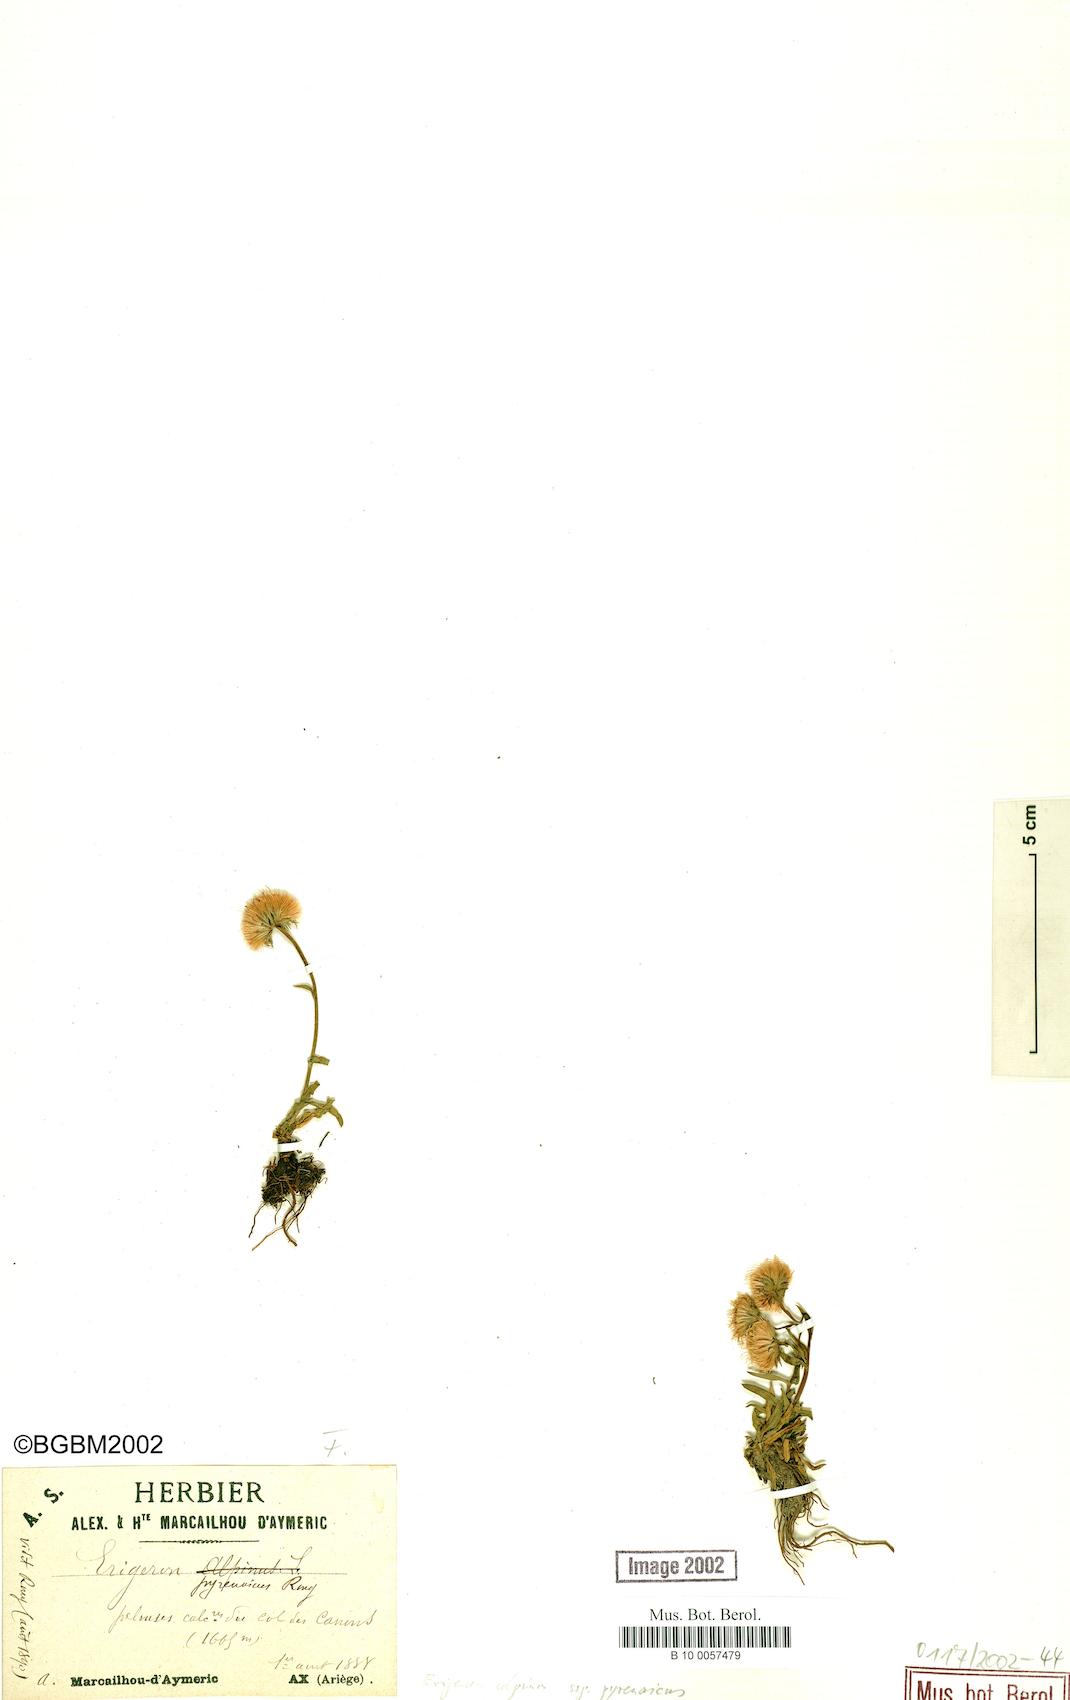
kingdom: Plantae
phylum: Tracheophyta
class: Magnoliopsida
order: Asterales
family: Asteraceae
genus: Erigeron
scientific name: Erigeron uniflorus
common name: Northern daisy
